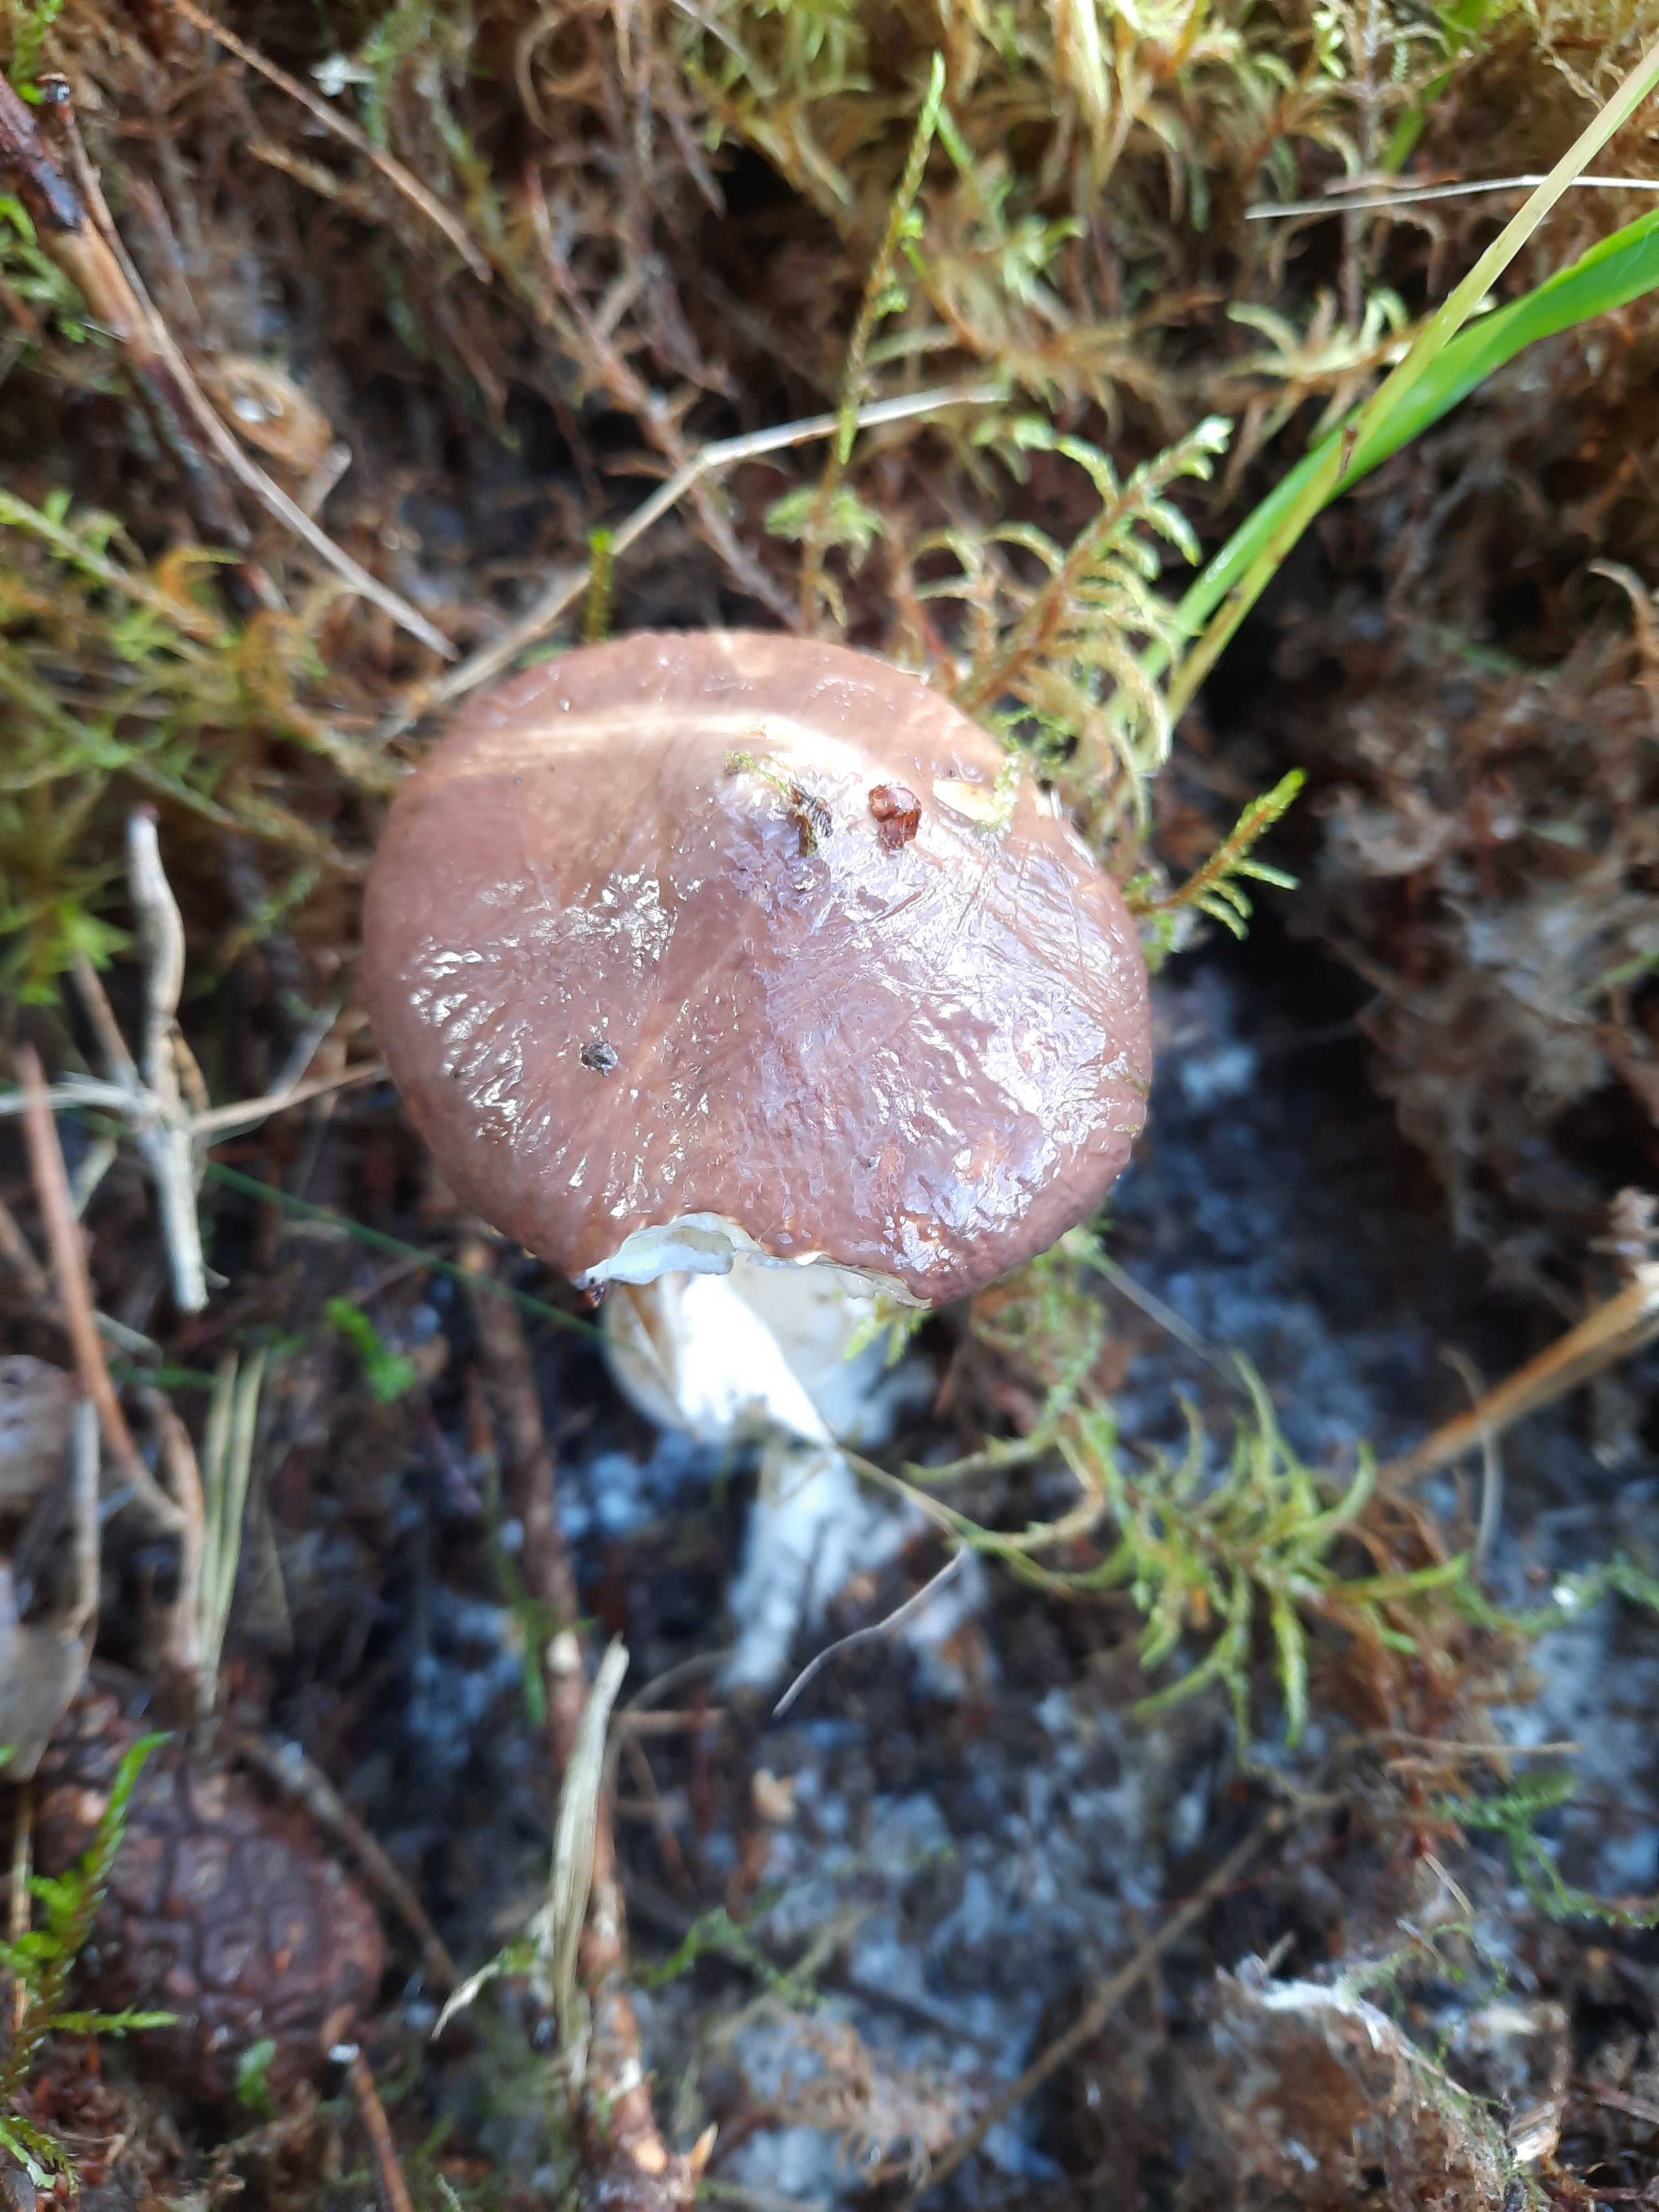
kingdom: Fungi
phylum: Basidiomycota
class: Agaricomycetes
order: Boletales
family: Suillaceae
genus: Suillus
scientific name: Suillus luteus
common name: brungul slimrørhat
